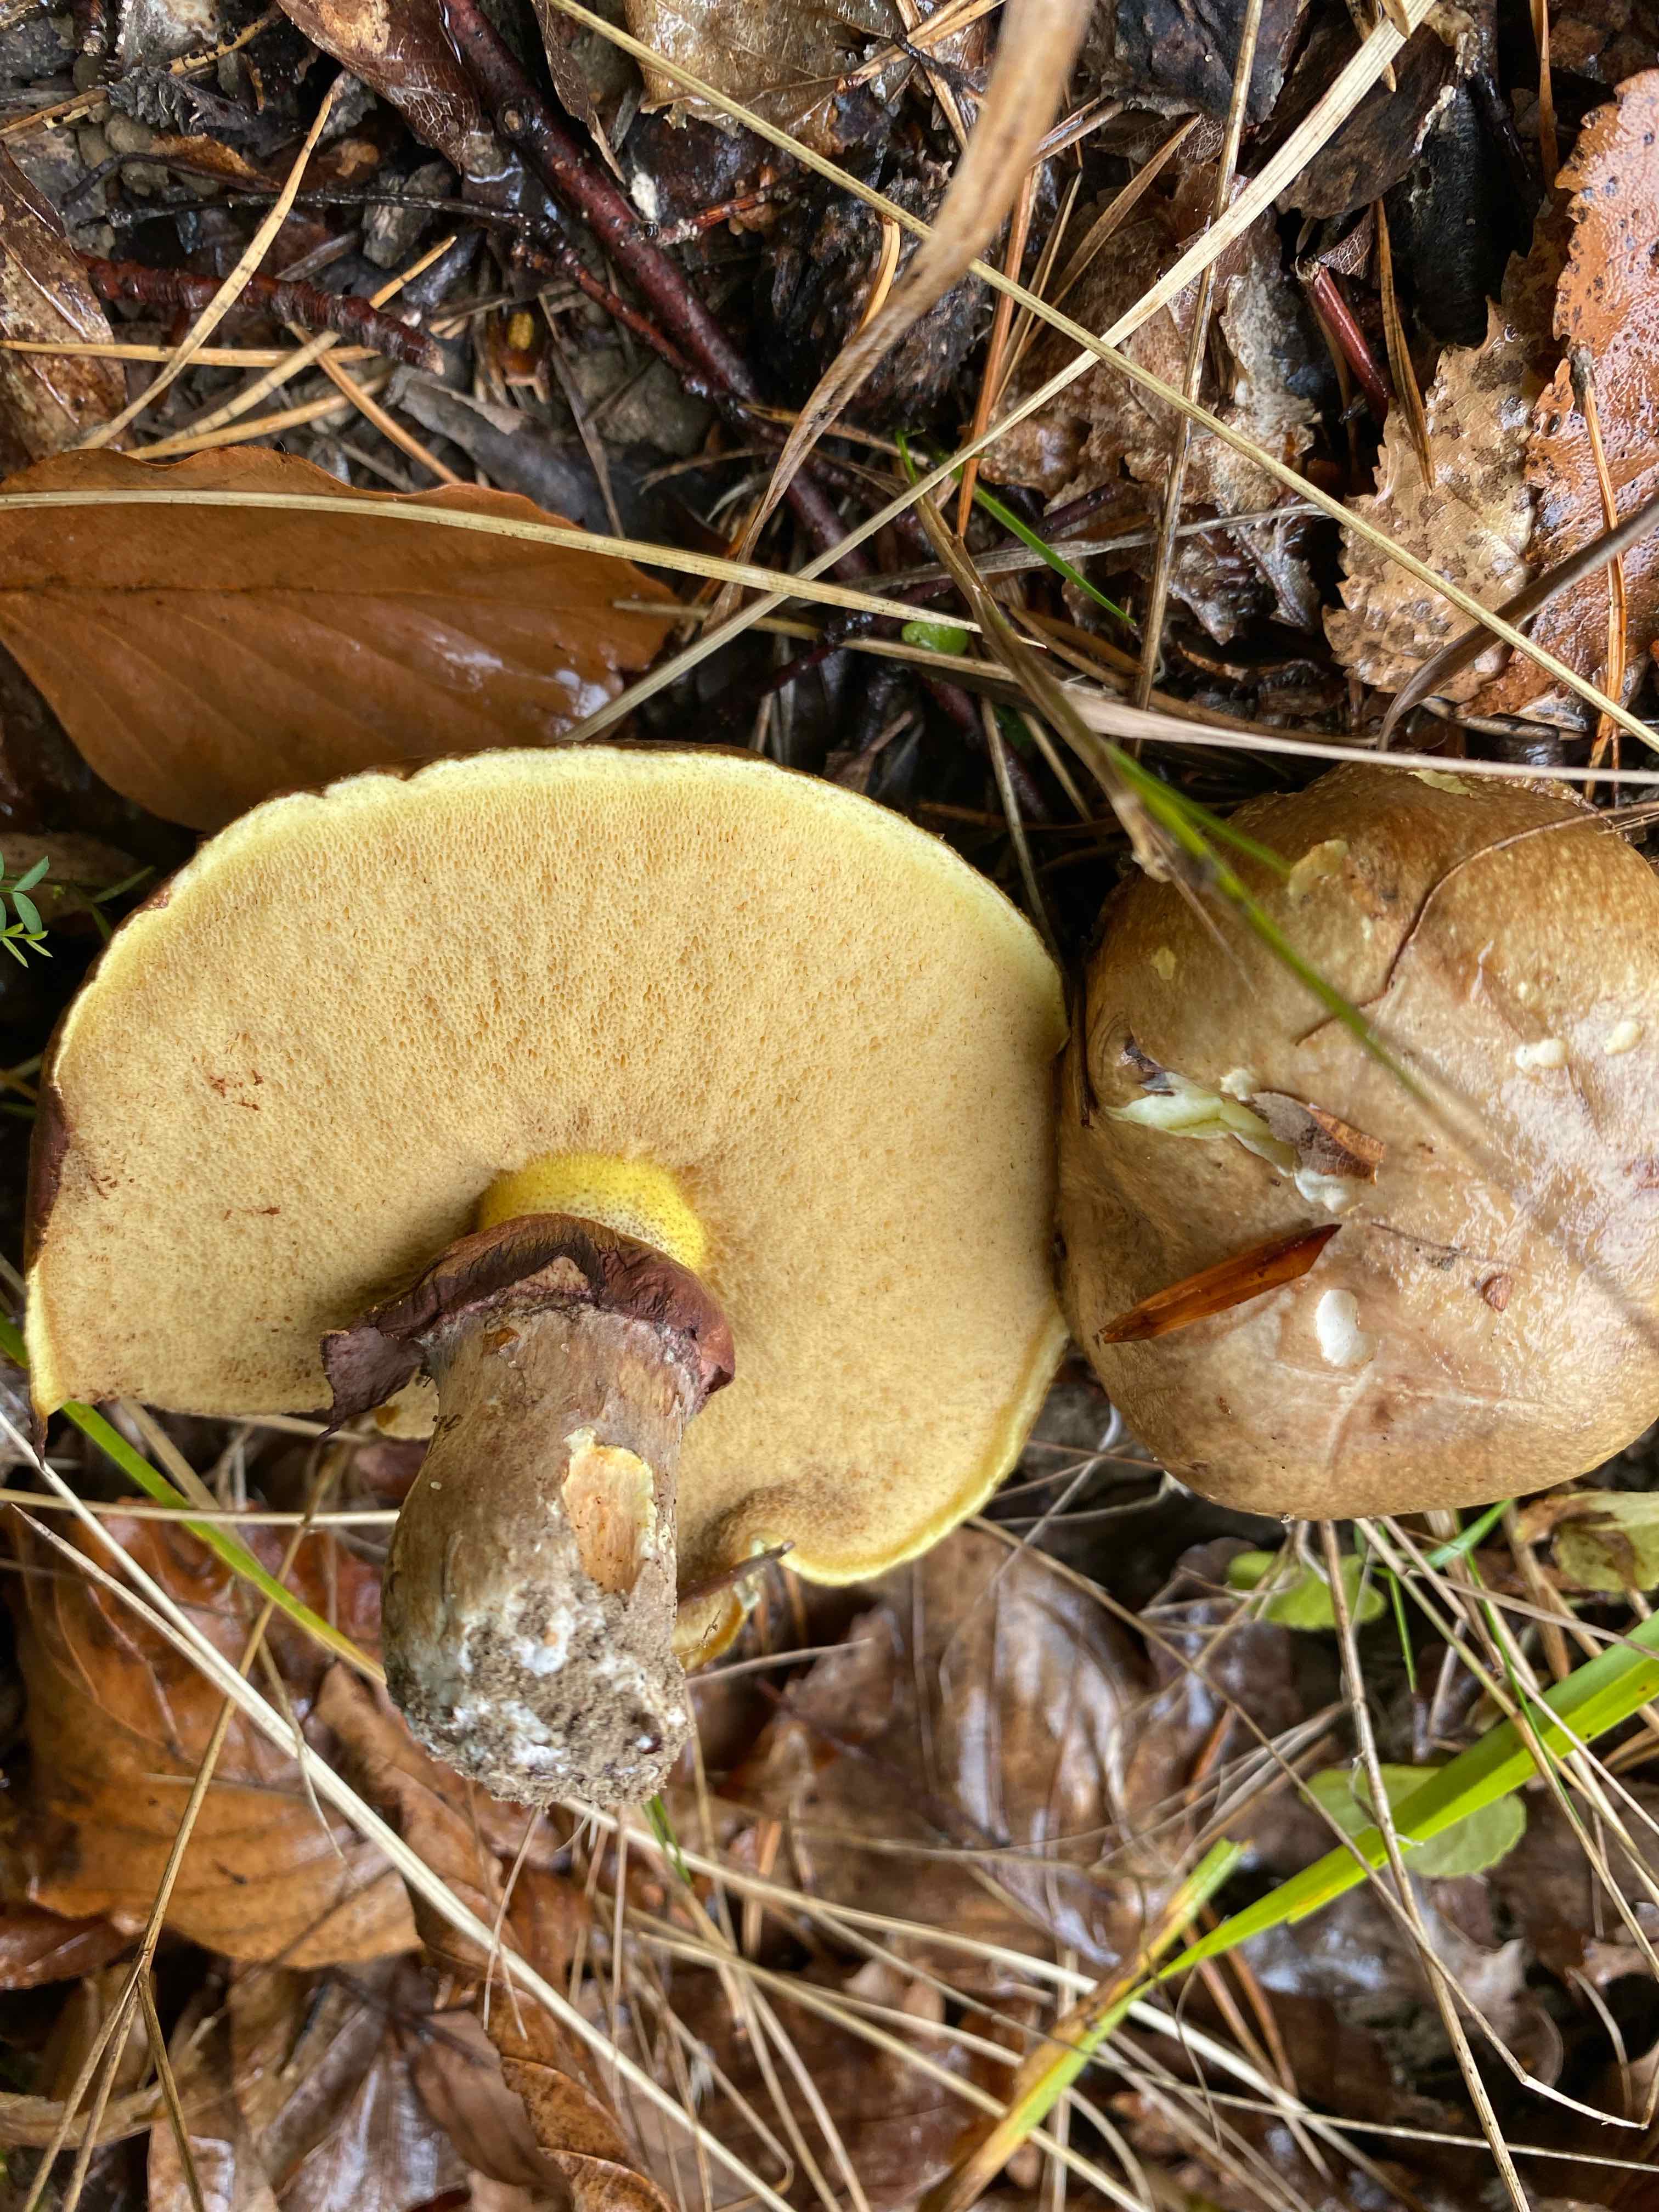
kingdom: Fungi
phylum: Basidiomycota
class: Agaricomycetes
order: Boletales
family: Suillaceae
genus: Suillus
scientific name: Suillus luteus
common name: brungul slimrørhat
